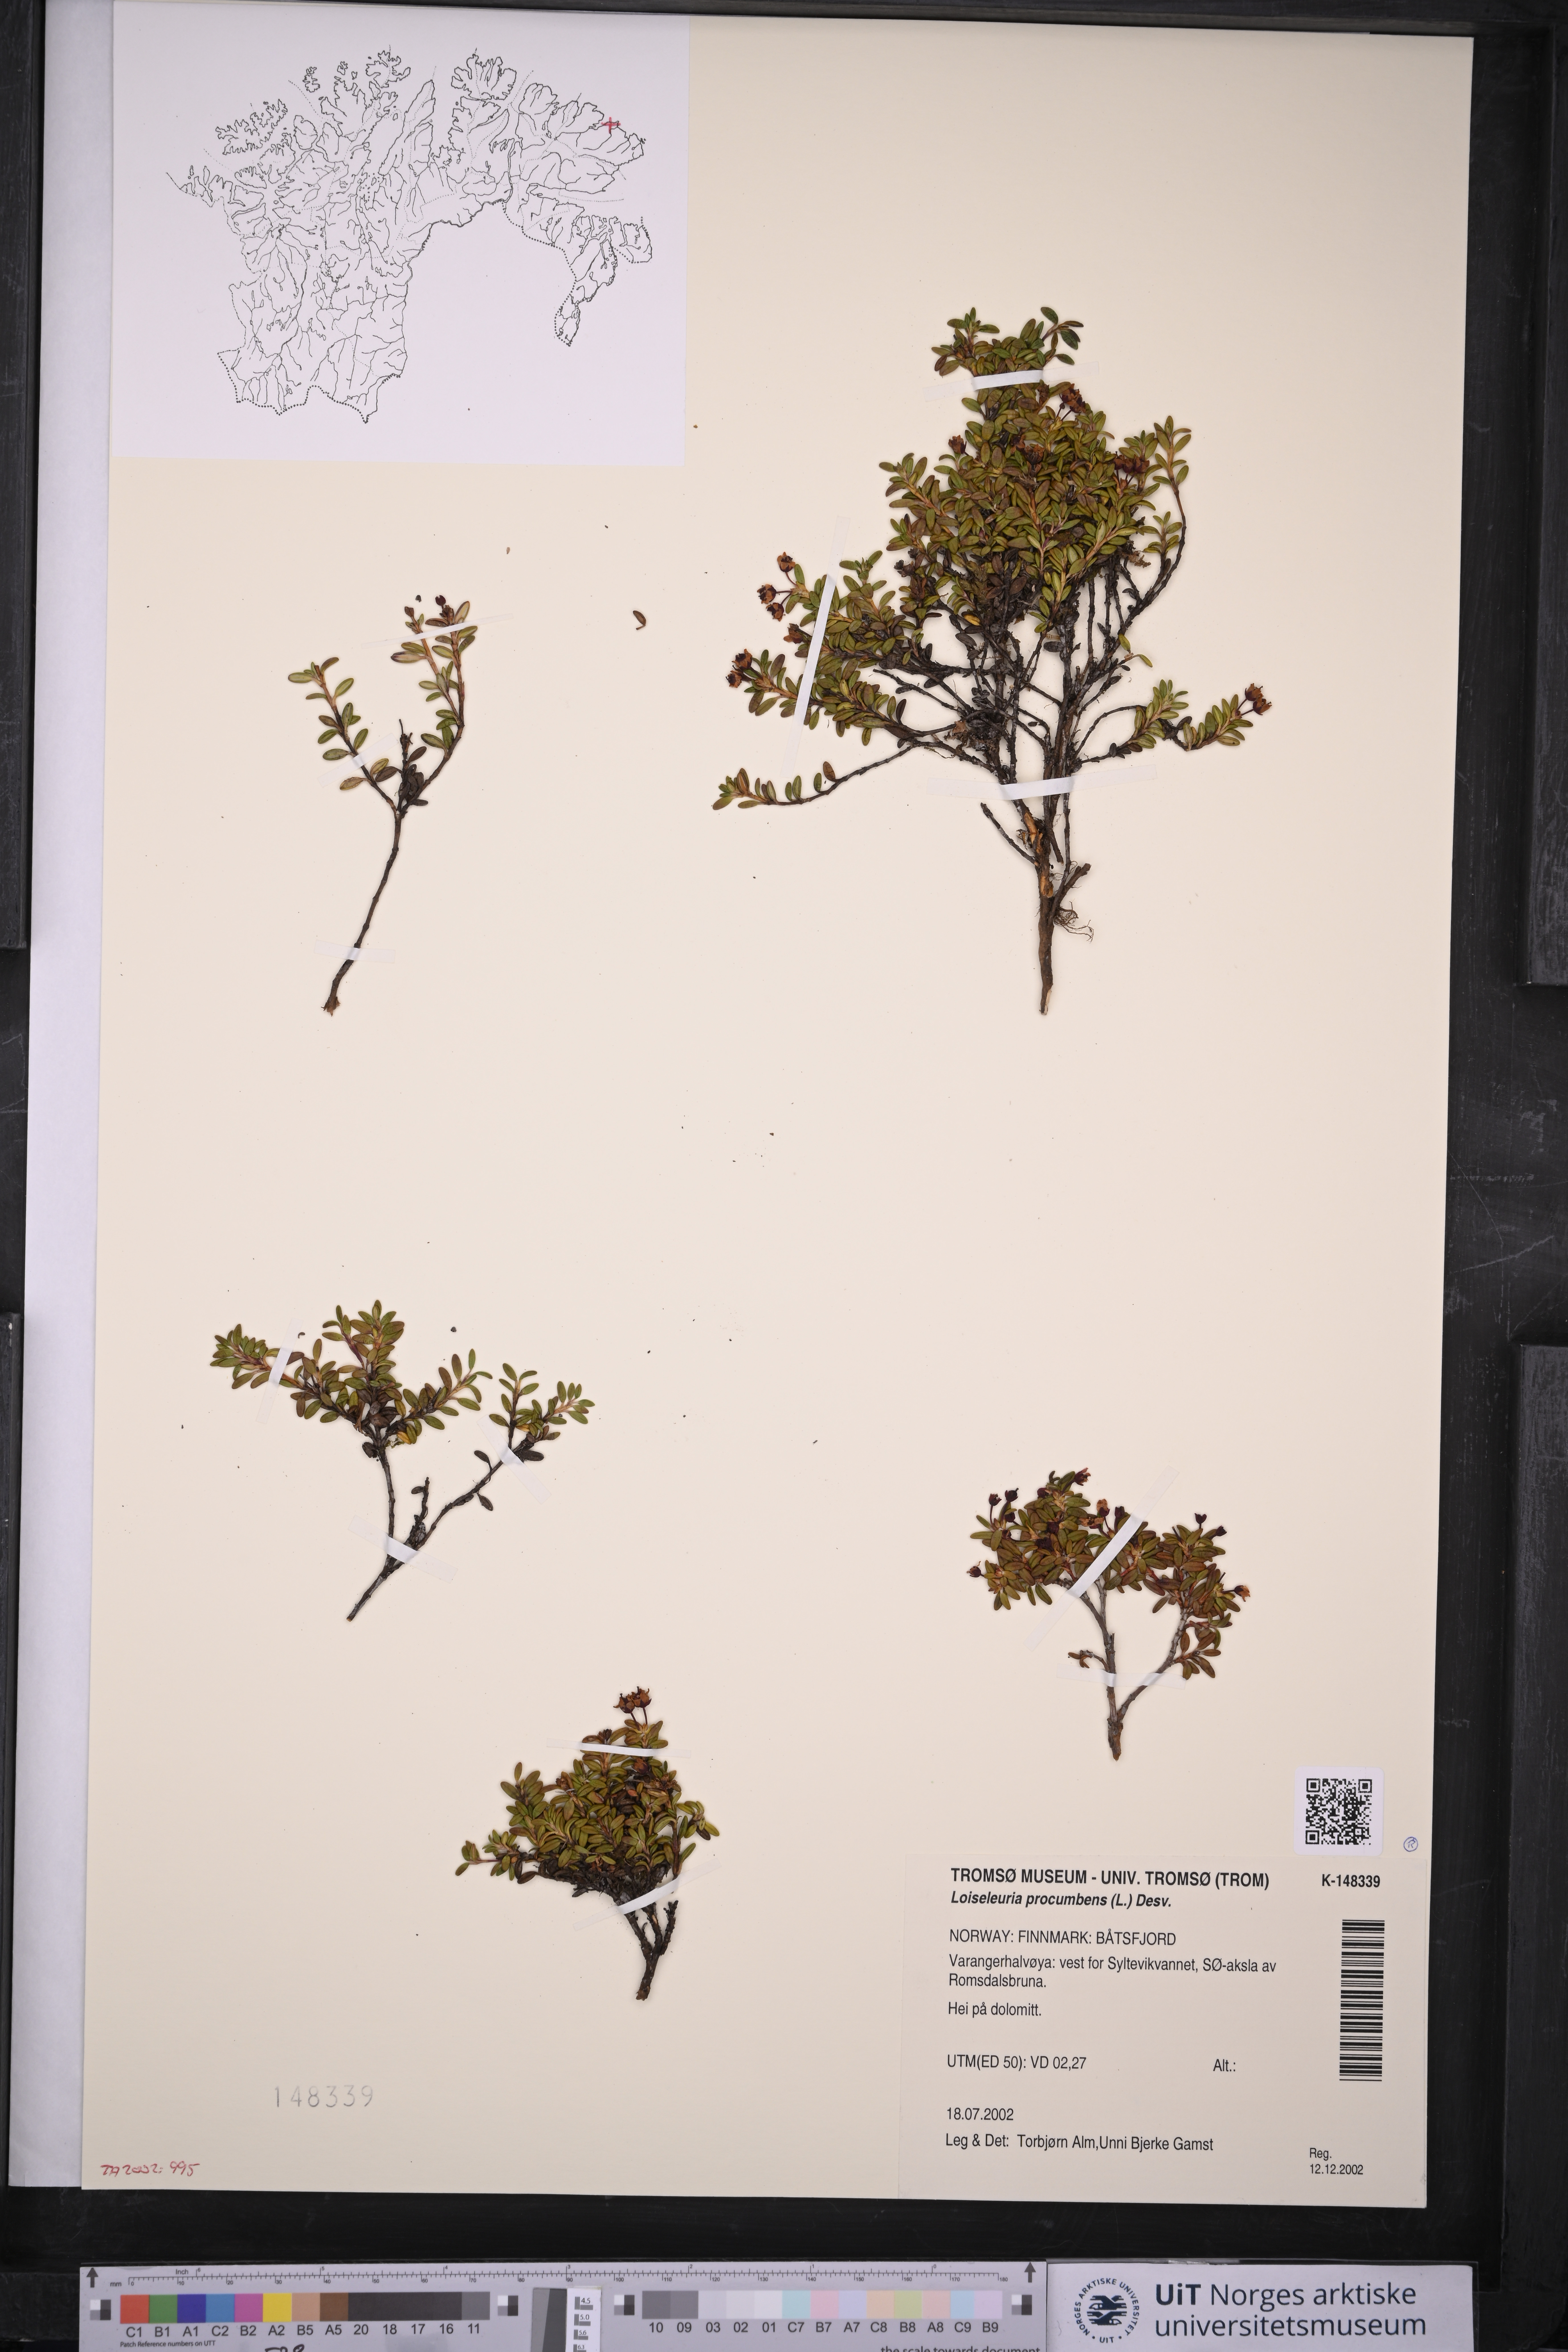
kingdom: Plantae
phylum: Tracheophyta
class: Magnoliopsida
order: Ericales
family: Ericaceae
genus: Kalmia
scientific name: Kalmia procumbens
